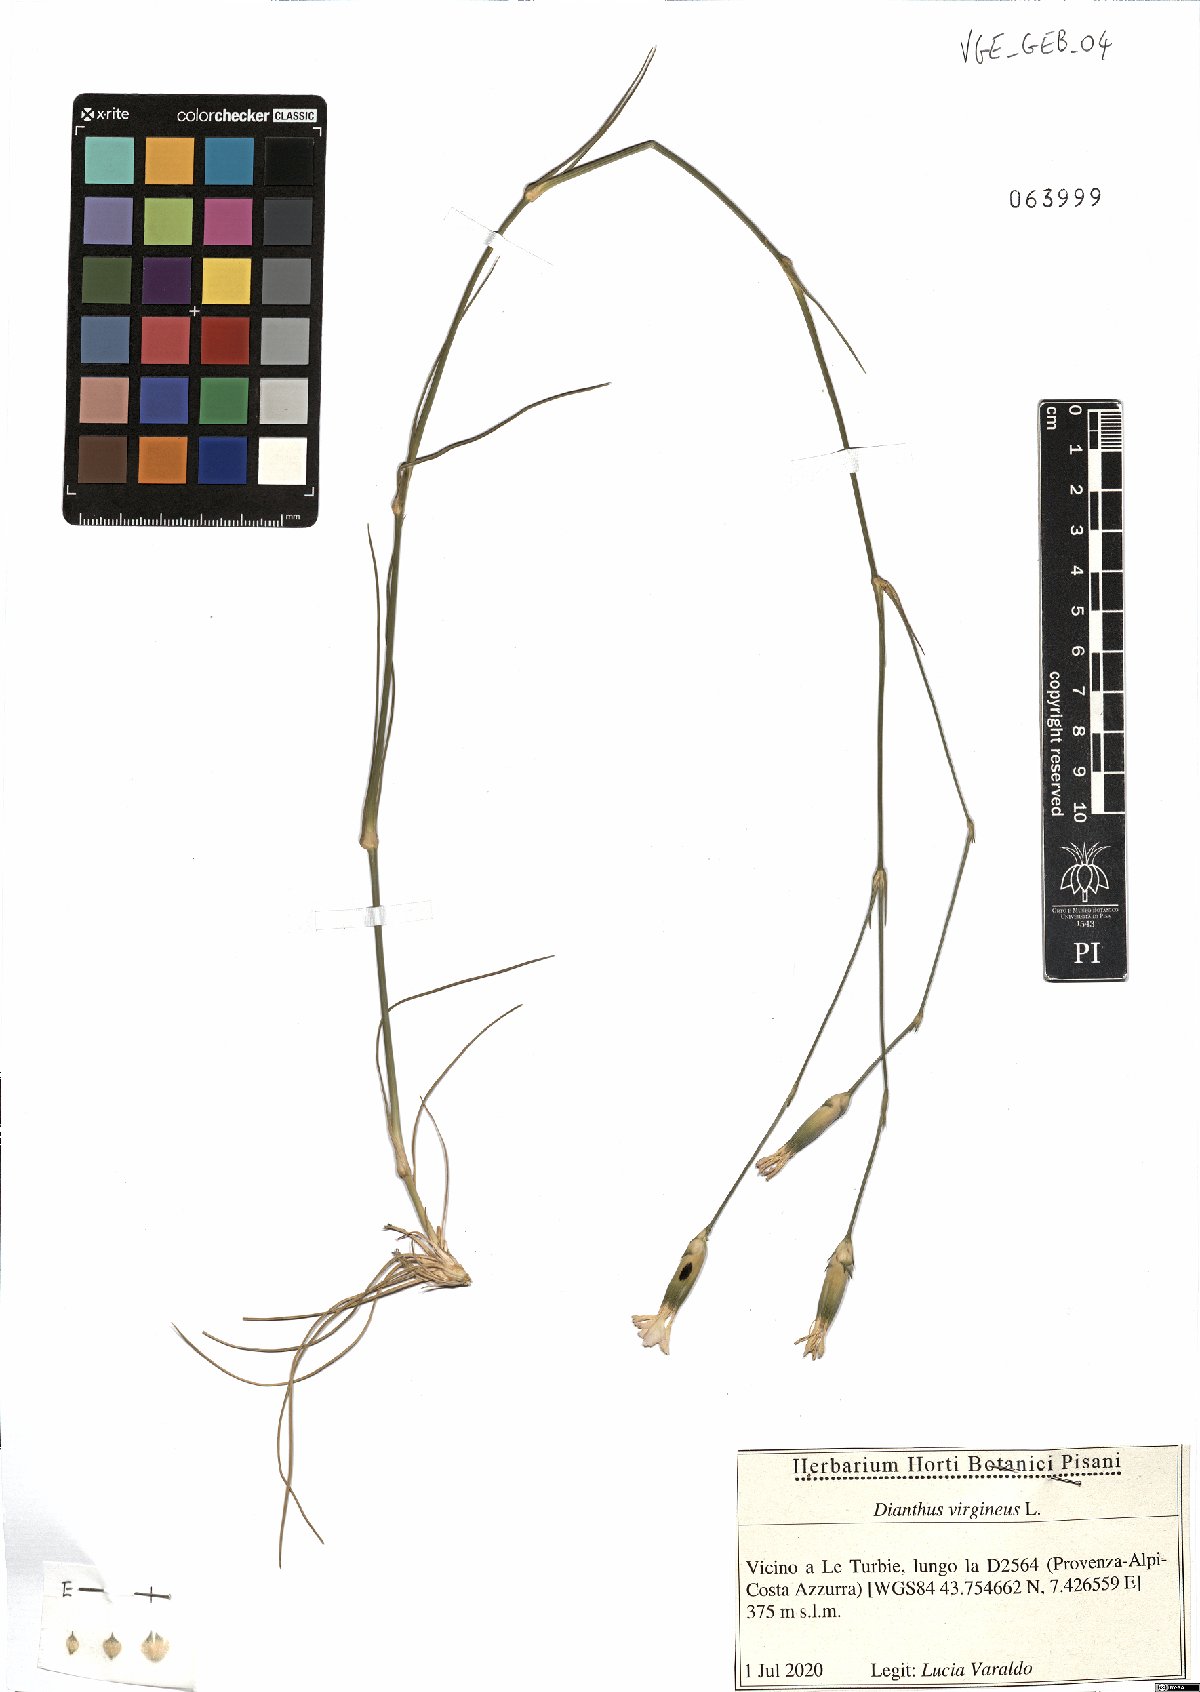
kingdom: Plantae
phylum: Tracheophyta
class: Magnoliopsida
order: Caryophyllales
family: Caryophyllaceae
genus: Dianthus
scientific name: Dianthus virgineus
